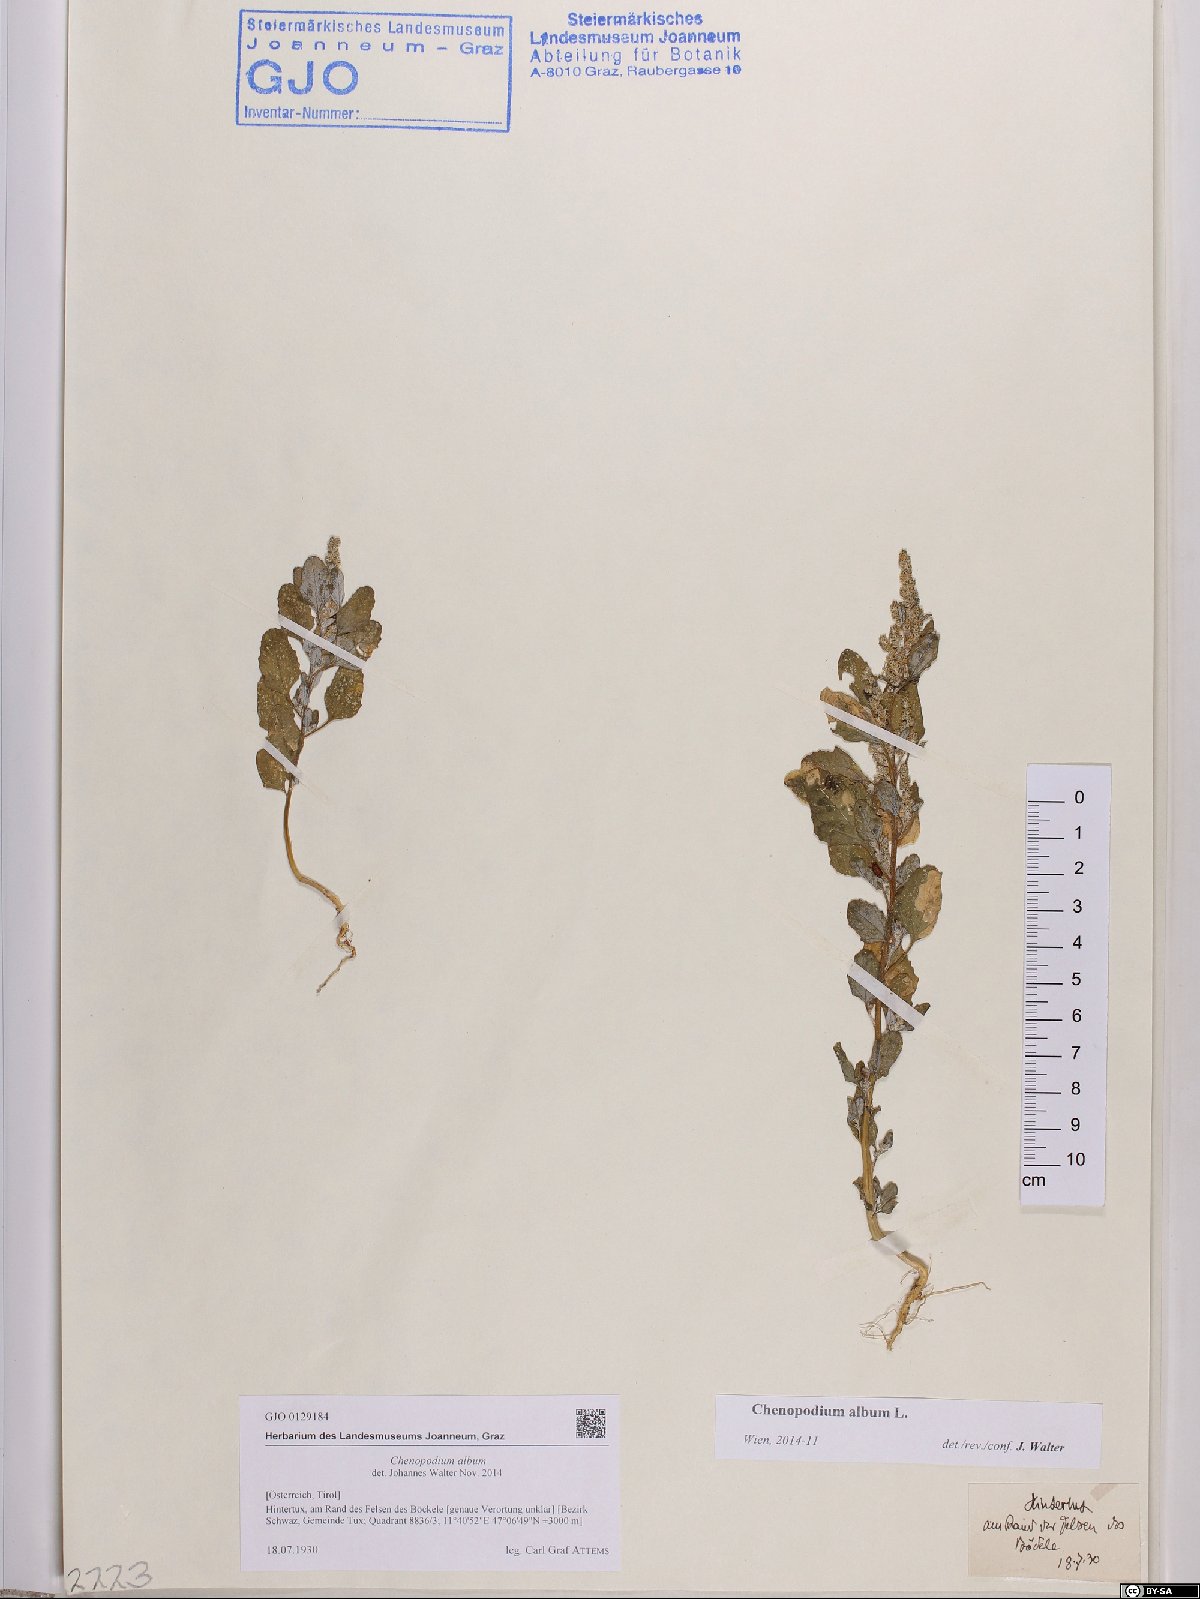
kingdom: Plantae
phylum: Tracheophyta
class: Magnoliopsida
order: Caryophyllales
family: Amaranthaceae
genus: Chenopodium
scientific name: Chenopodium album
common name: Fat-hen
